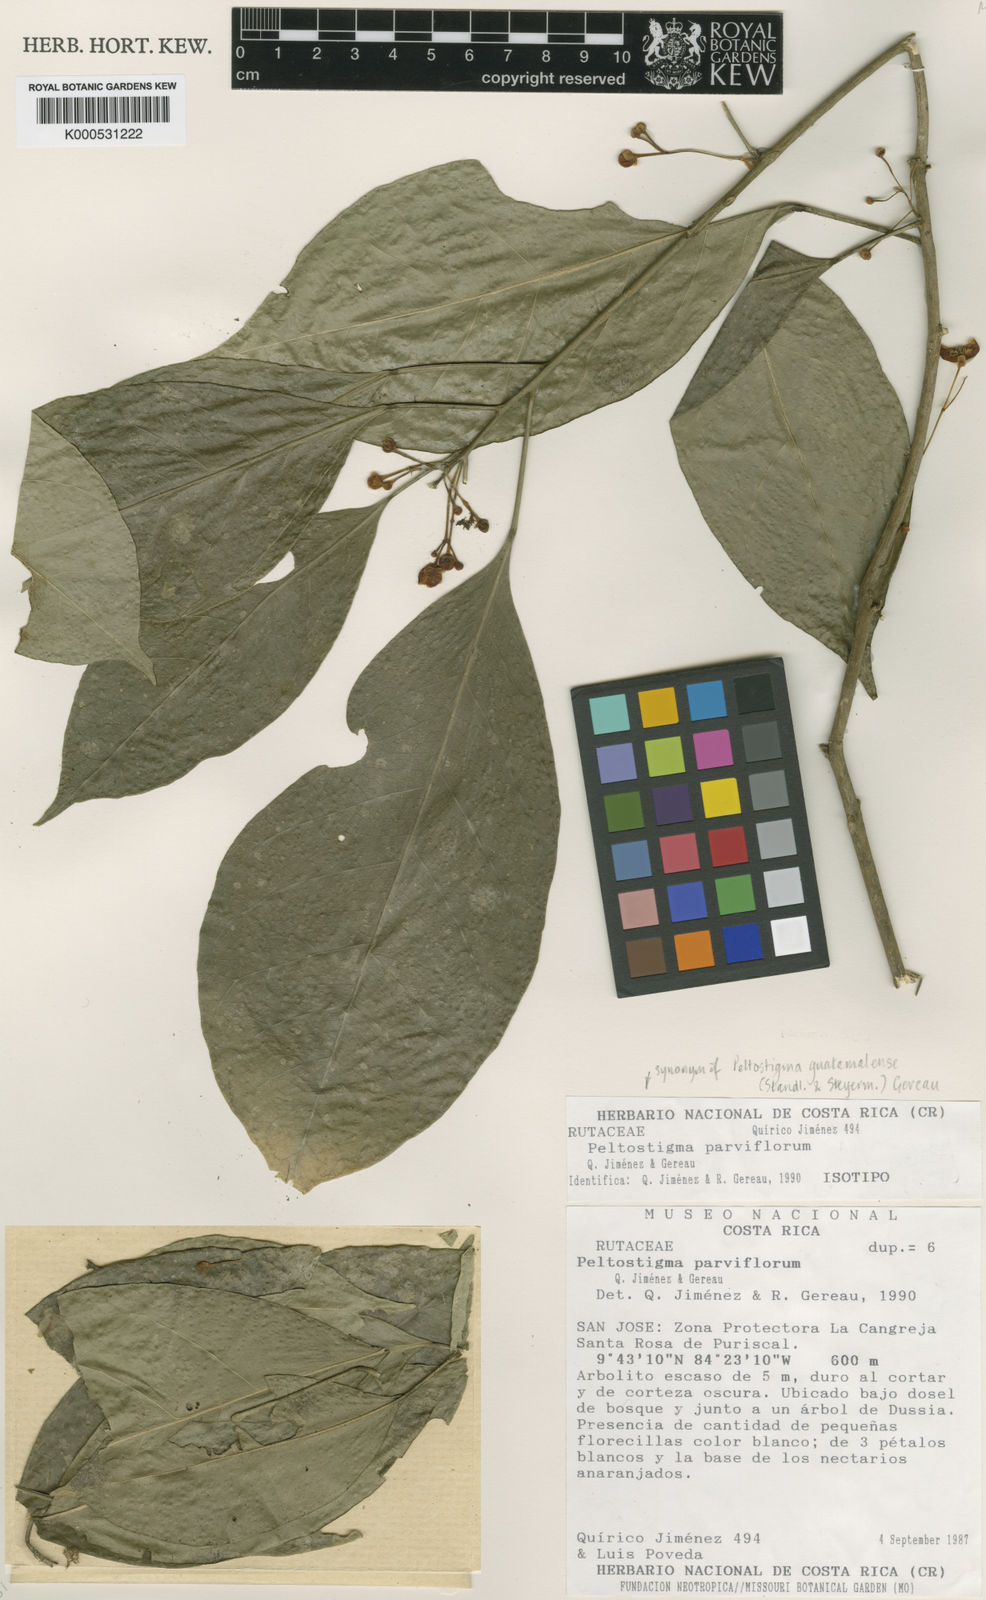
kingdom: Plantae
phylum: Tracheophyta
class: Magnoliopsida
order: Sapindales
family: Rutaceae
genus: Peltostigma
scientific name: Peltostigma guatemalense
